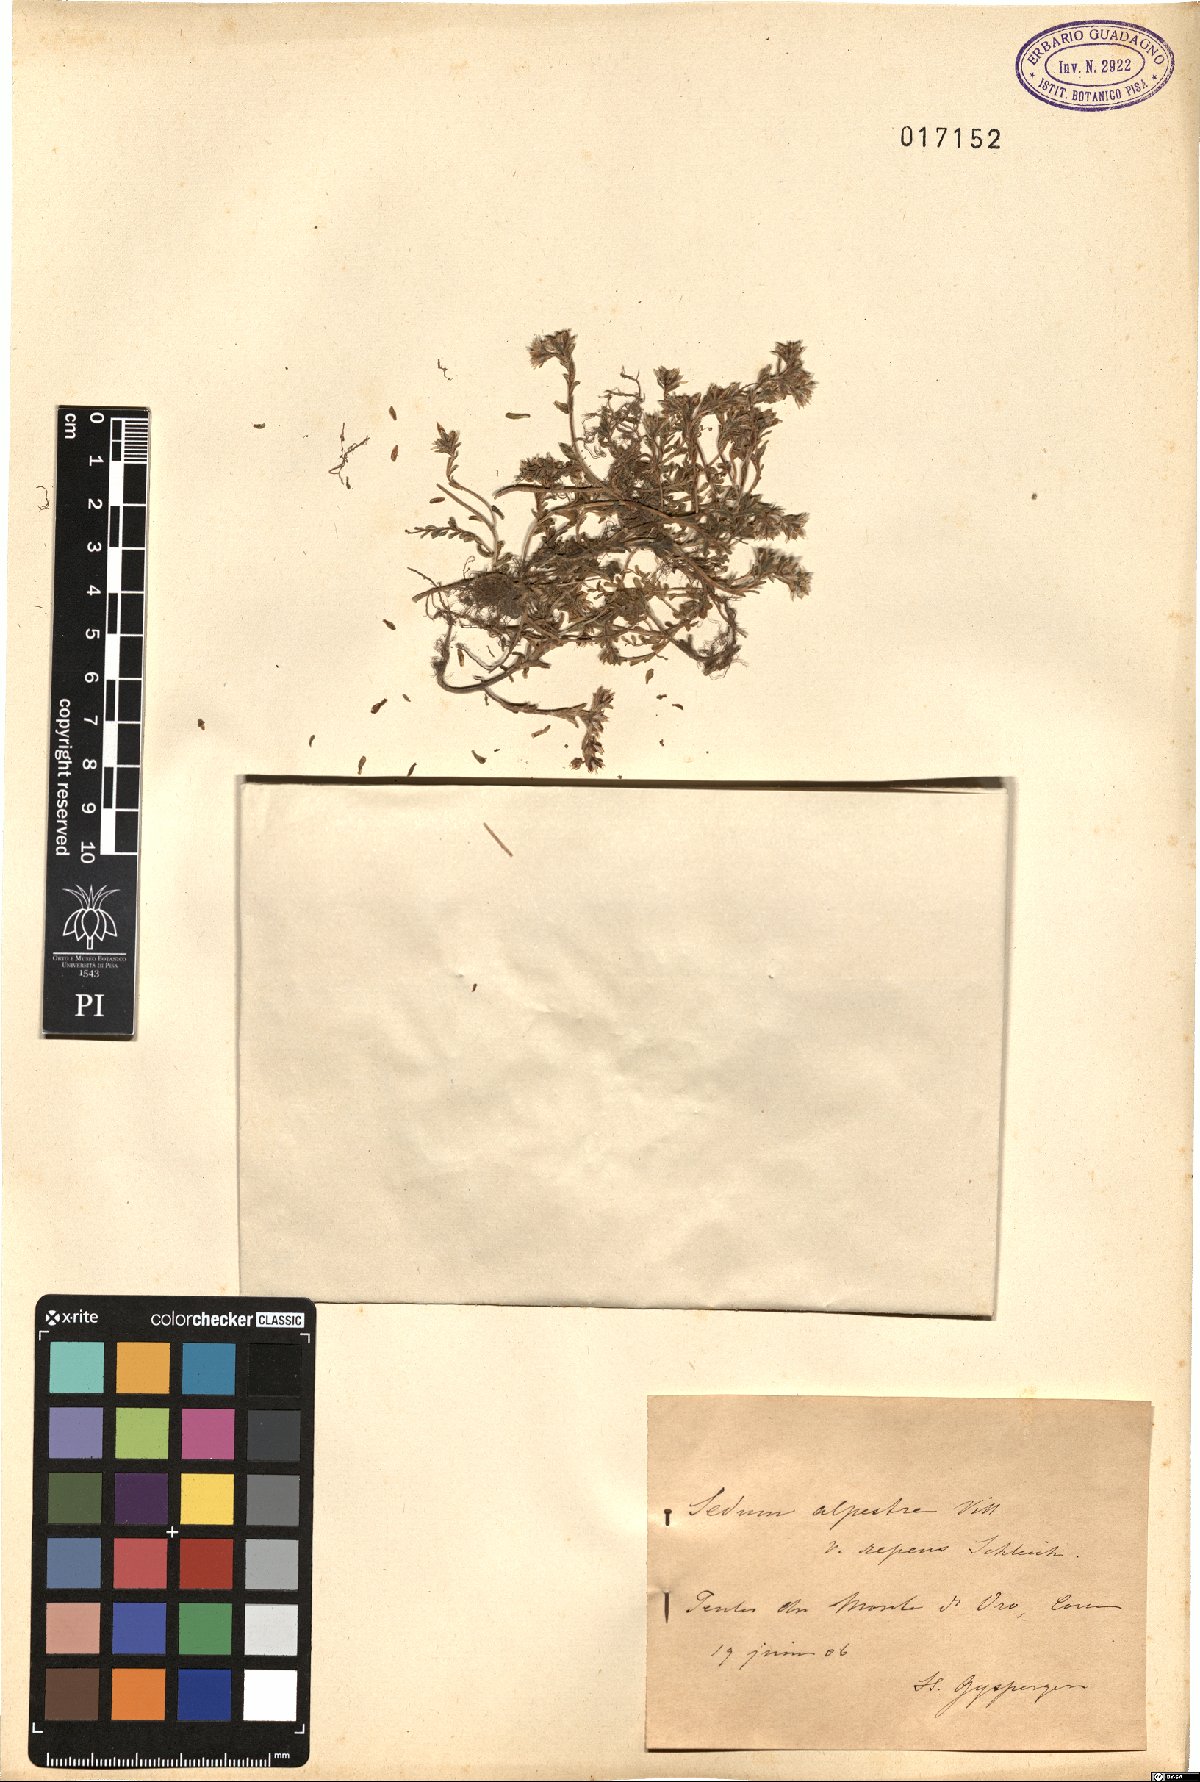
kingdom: Plantae
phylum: Tracheophyta
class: Magnoliopsida
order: Saxifragales
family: Crassulaceae
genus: Sedum
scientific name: Sedum alpestre
